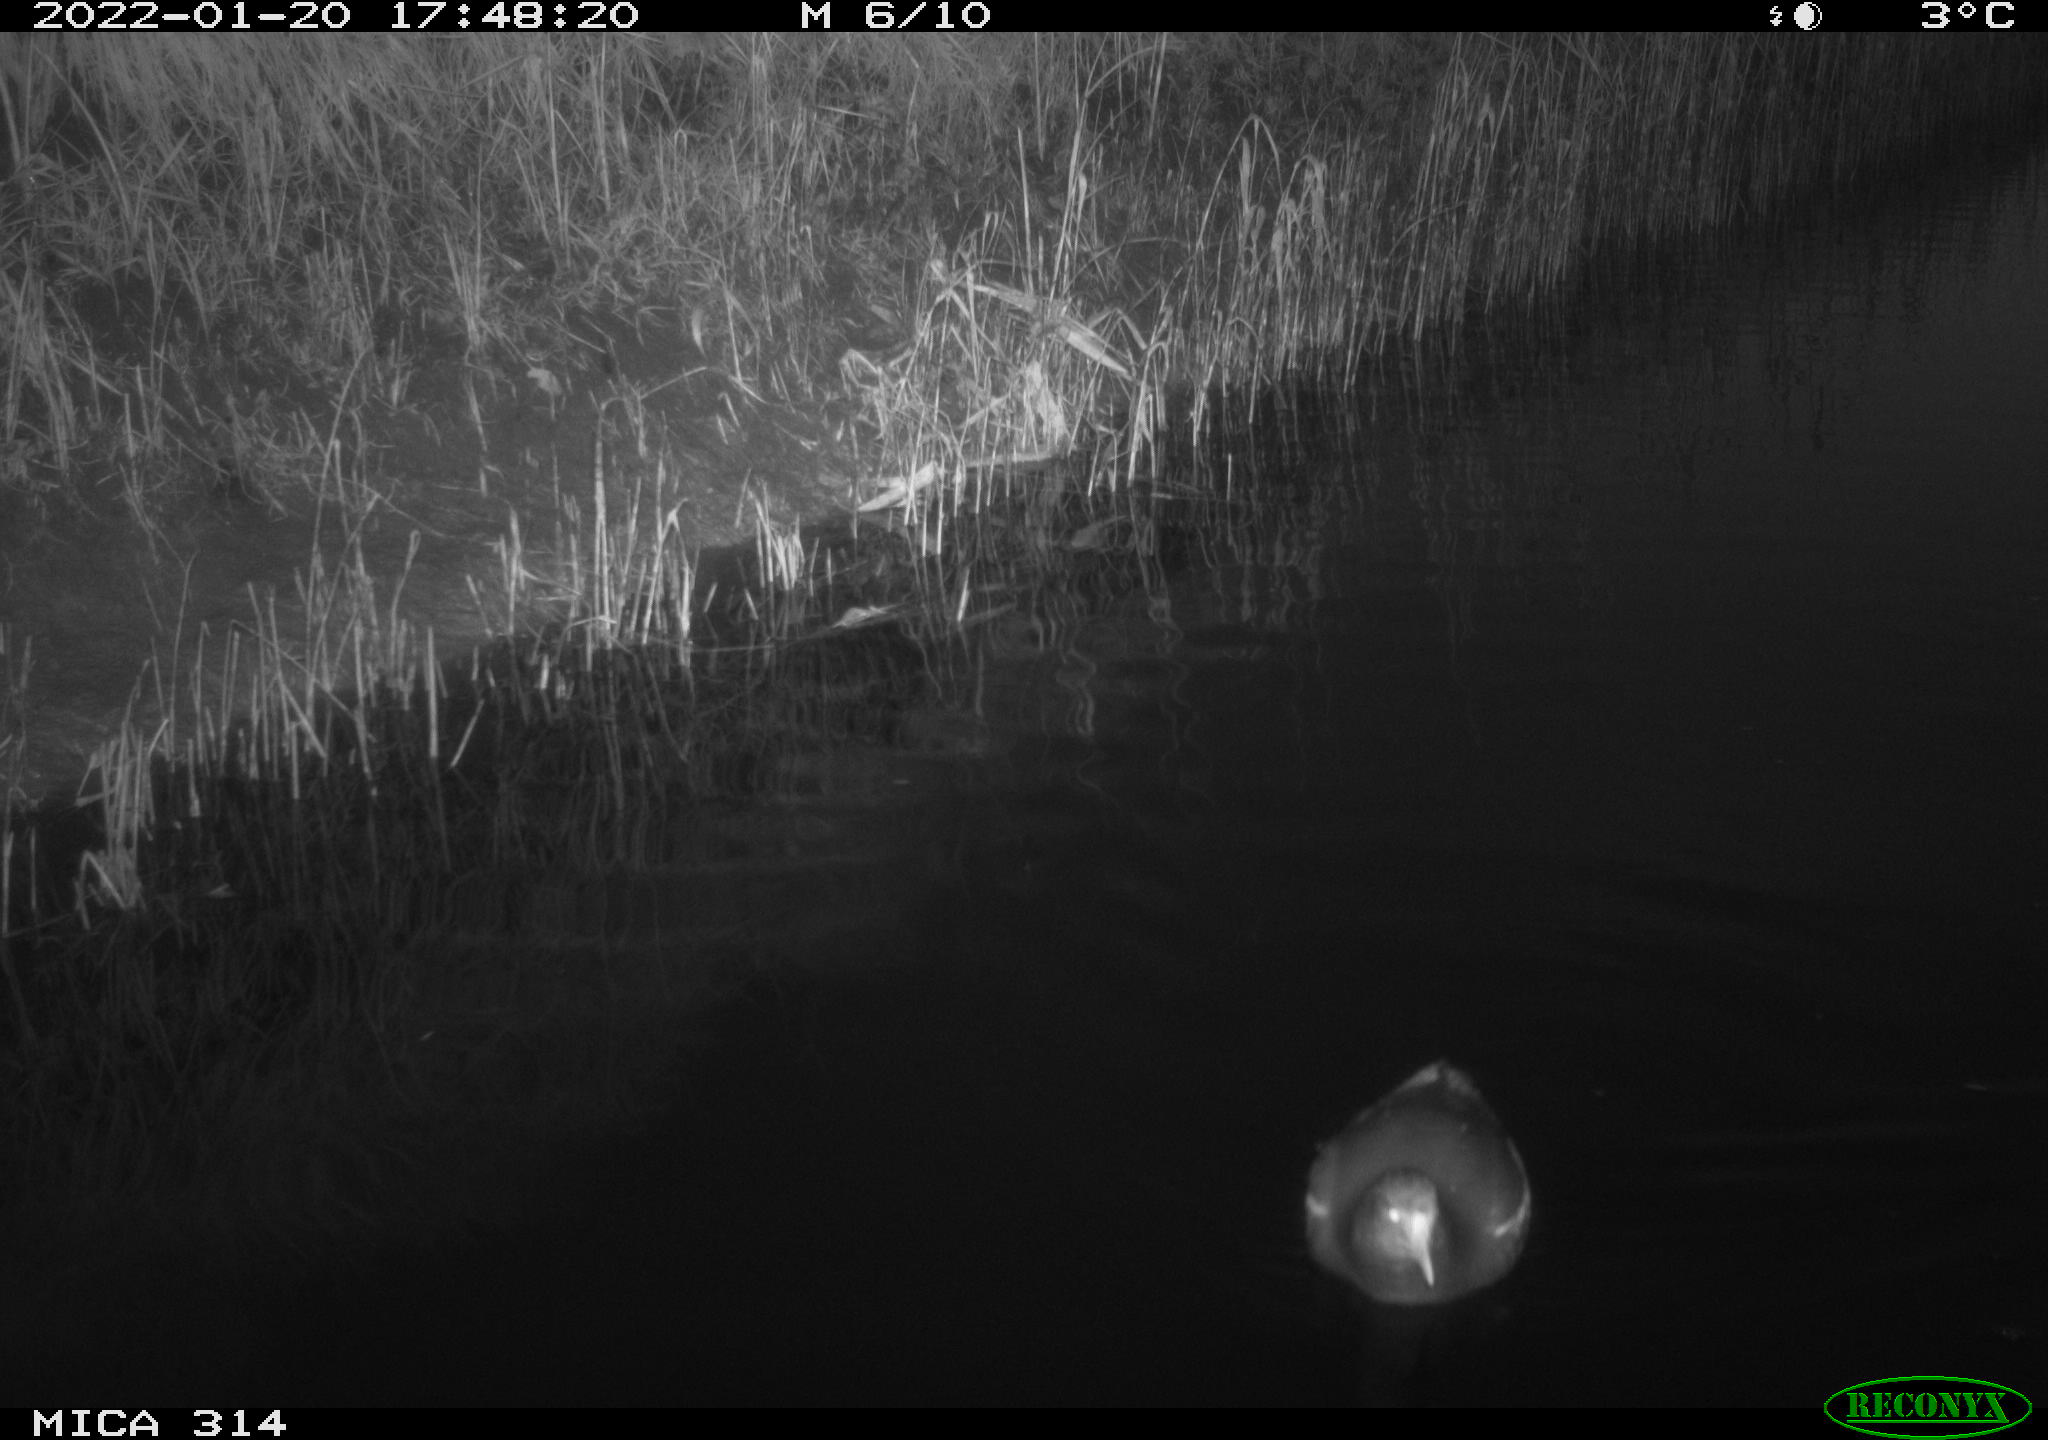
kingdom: Animalia
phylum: Chordata
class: Aves
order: Gruiformes
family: Rallidae
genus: Fulica
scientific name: Fulica atra
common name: Eurasian coot
